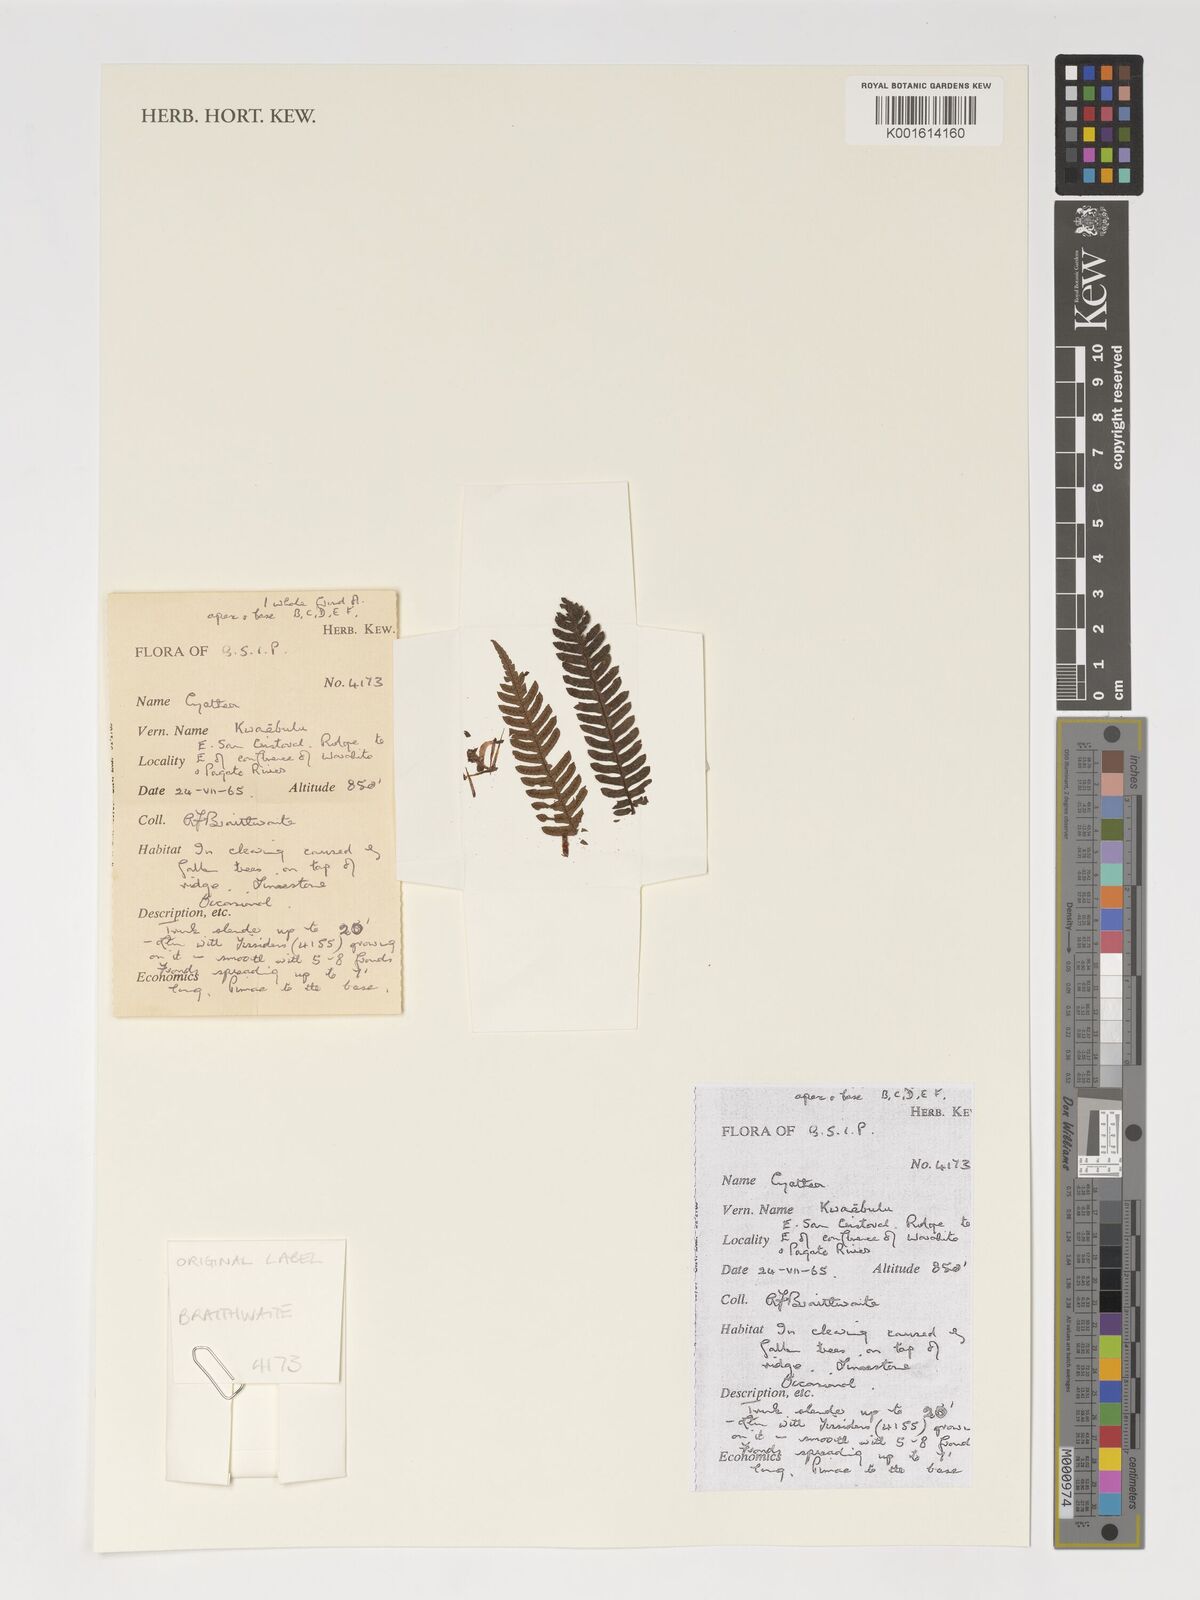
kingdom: Plantae
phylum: Tracheophyta
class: Polypodiopsida
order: Cyatheales
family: Cyatheaceae
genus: Cyathea
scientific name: Cyathea
